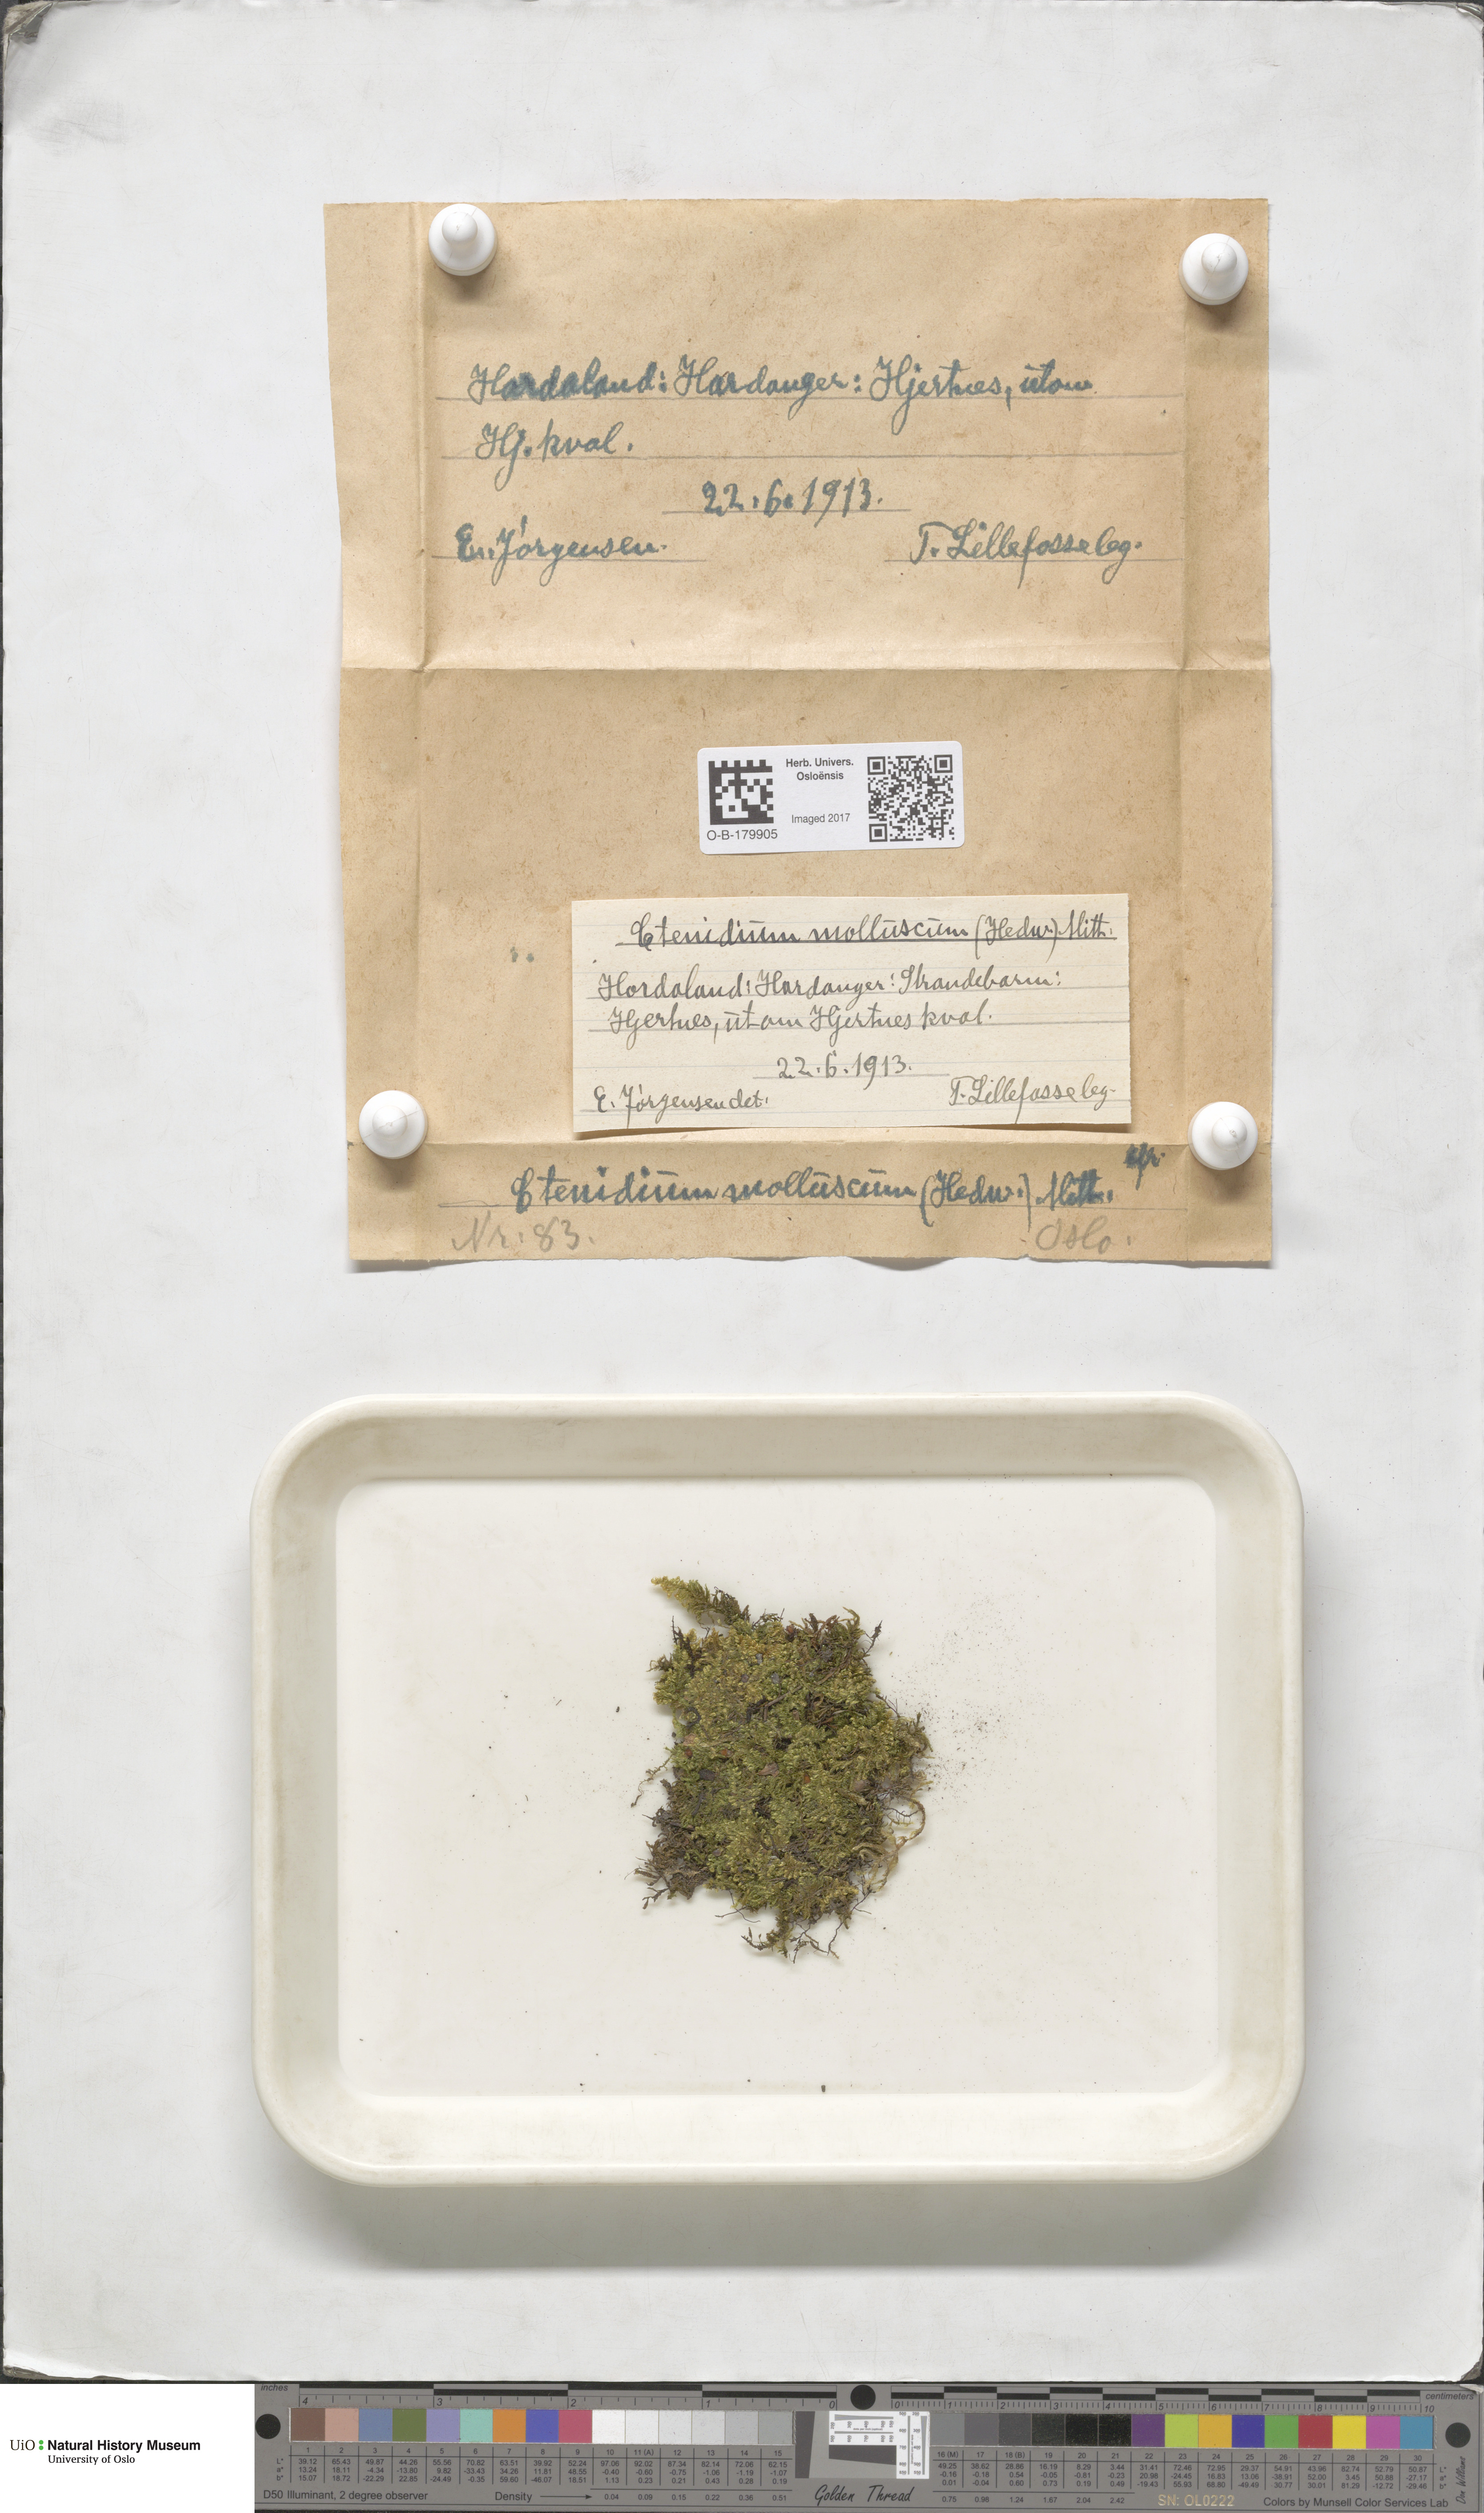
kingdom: Plantae
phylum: Bryophyta
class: Bryopsida
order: Hypnales
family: Myuriaceae
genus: Ctenidium
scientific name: Ctenidium molluscum
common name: Chalk comb-moss
